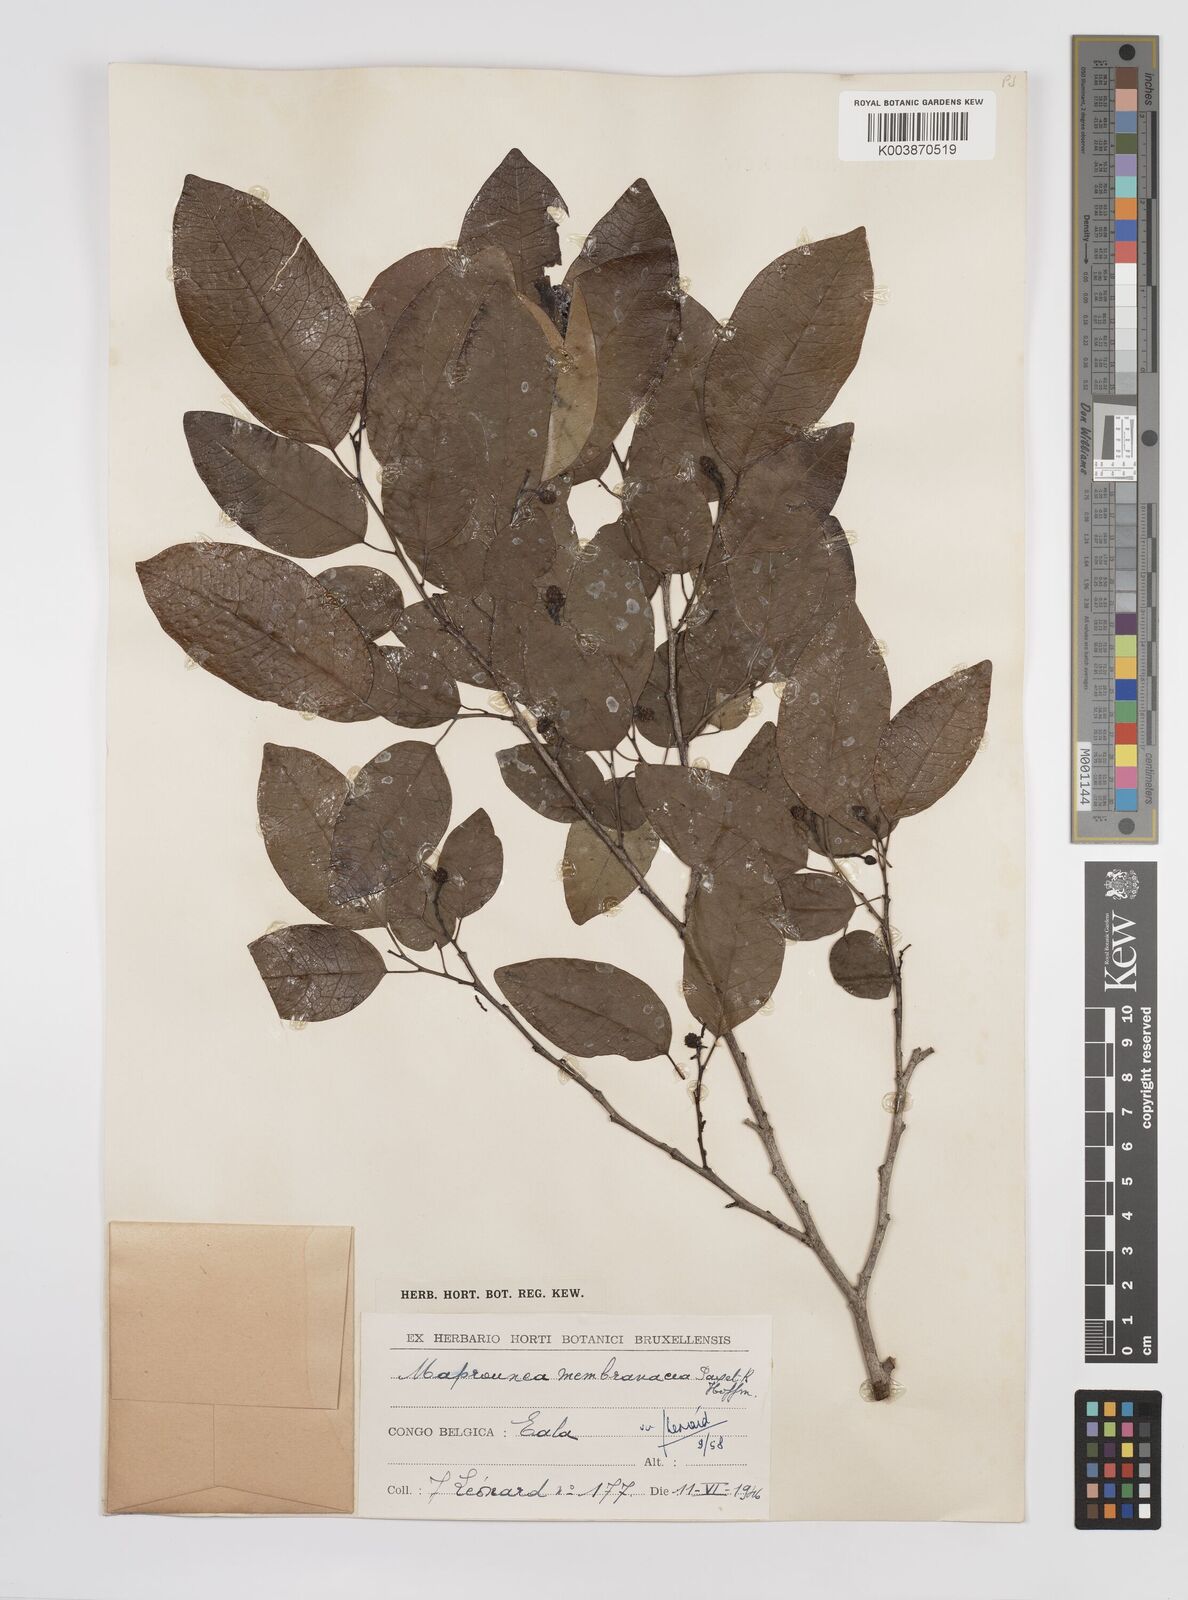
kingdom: Plantae
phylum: Tracheophyta
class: Magnoliopsida
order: Malpighiales
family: Euphorbiaceae
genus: Maprounea
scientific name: Maprounea membranacea
